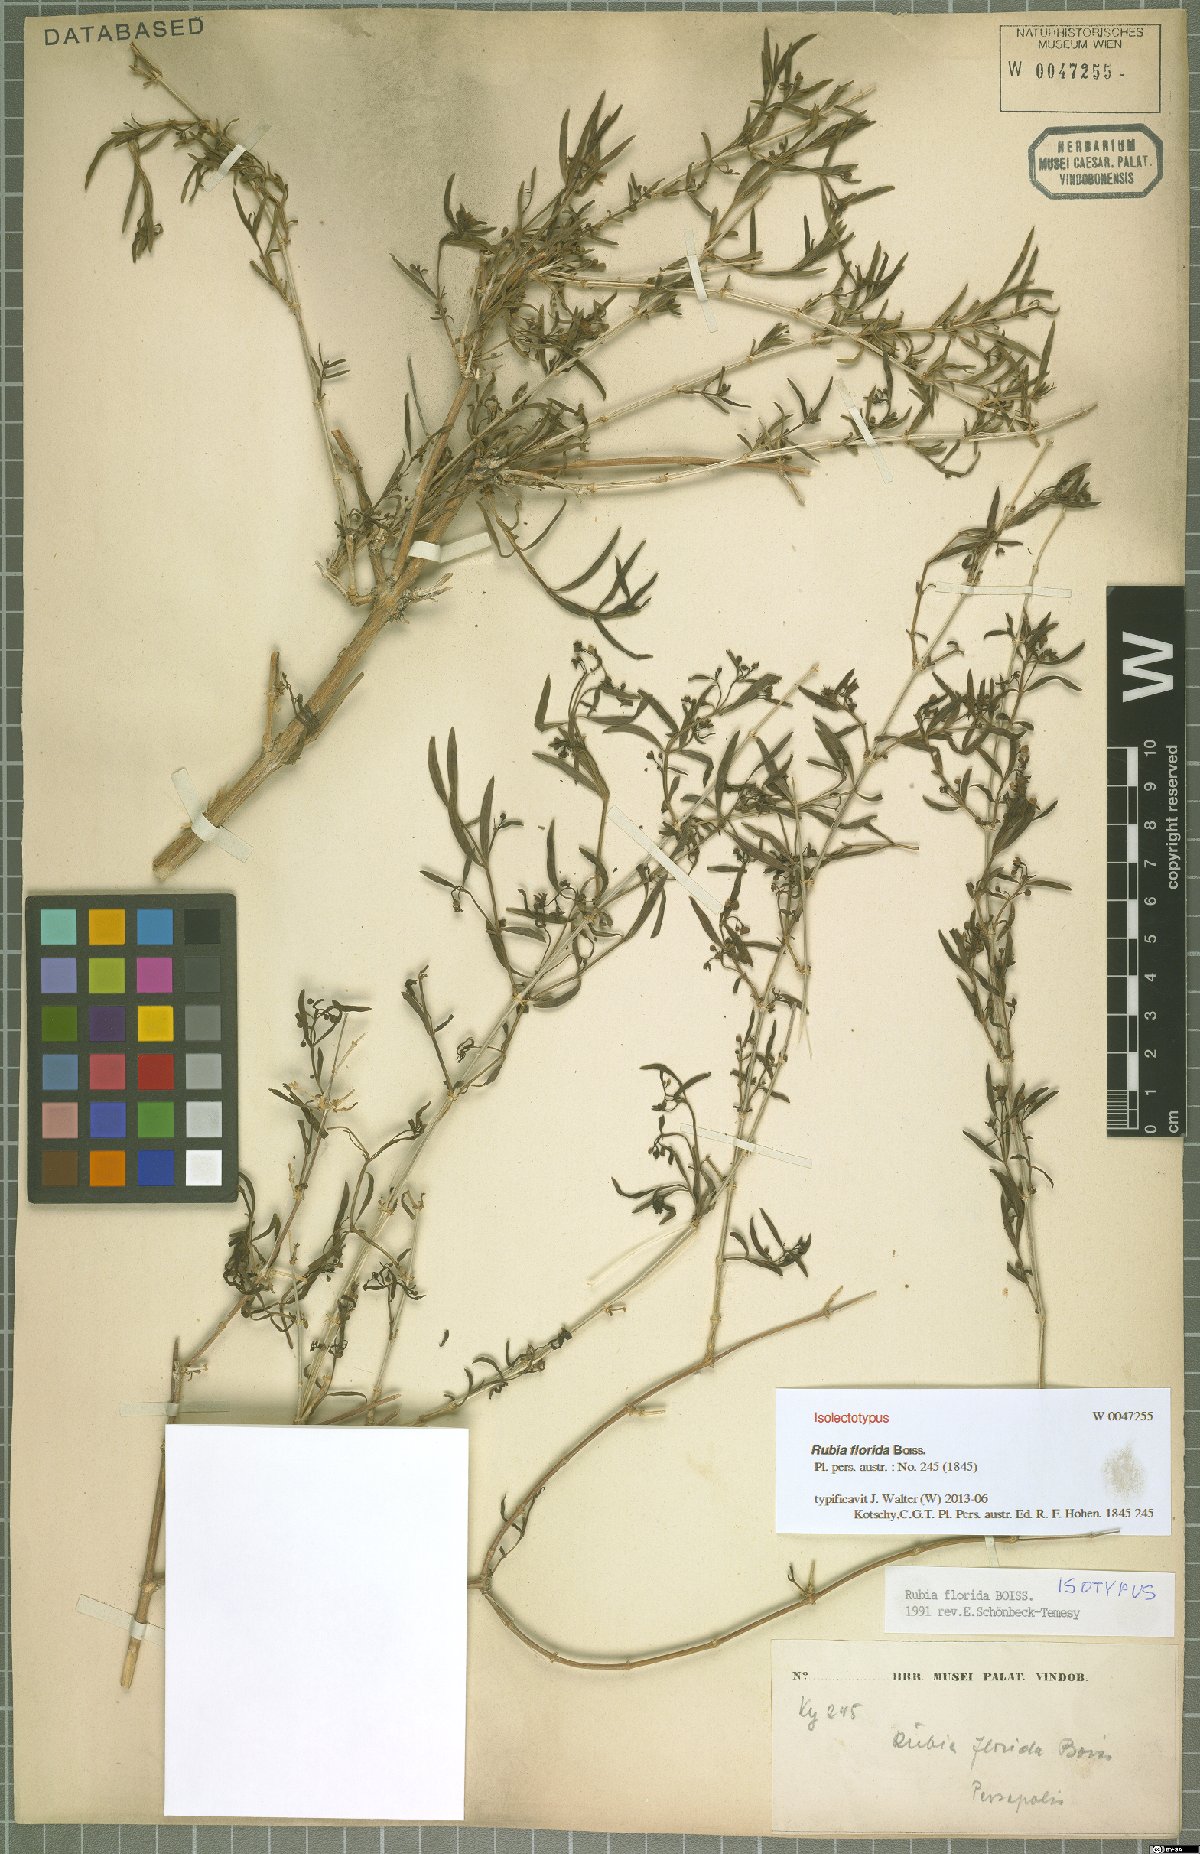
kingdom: Plantae
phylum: Tracheophyta
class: Magnoliopsida
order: Gentianales
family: Rubiaceae
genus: Rubia
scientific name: Rubia florida
